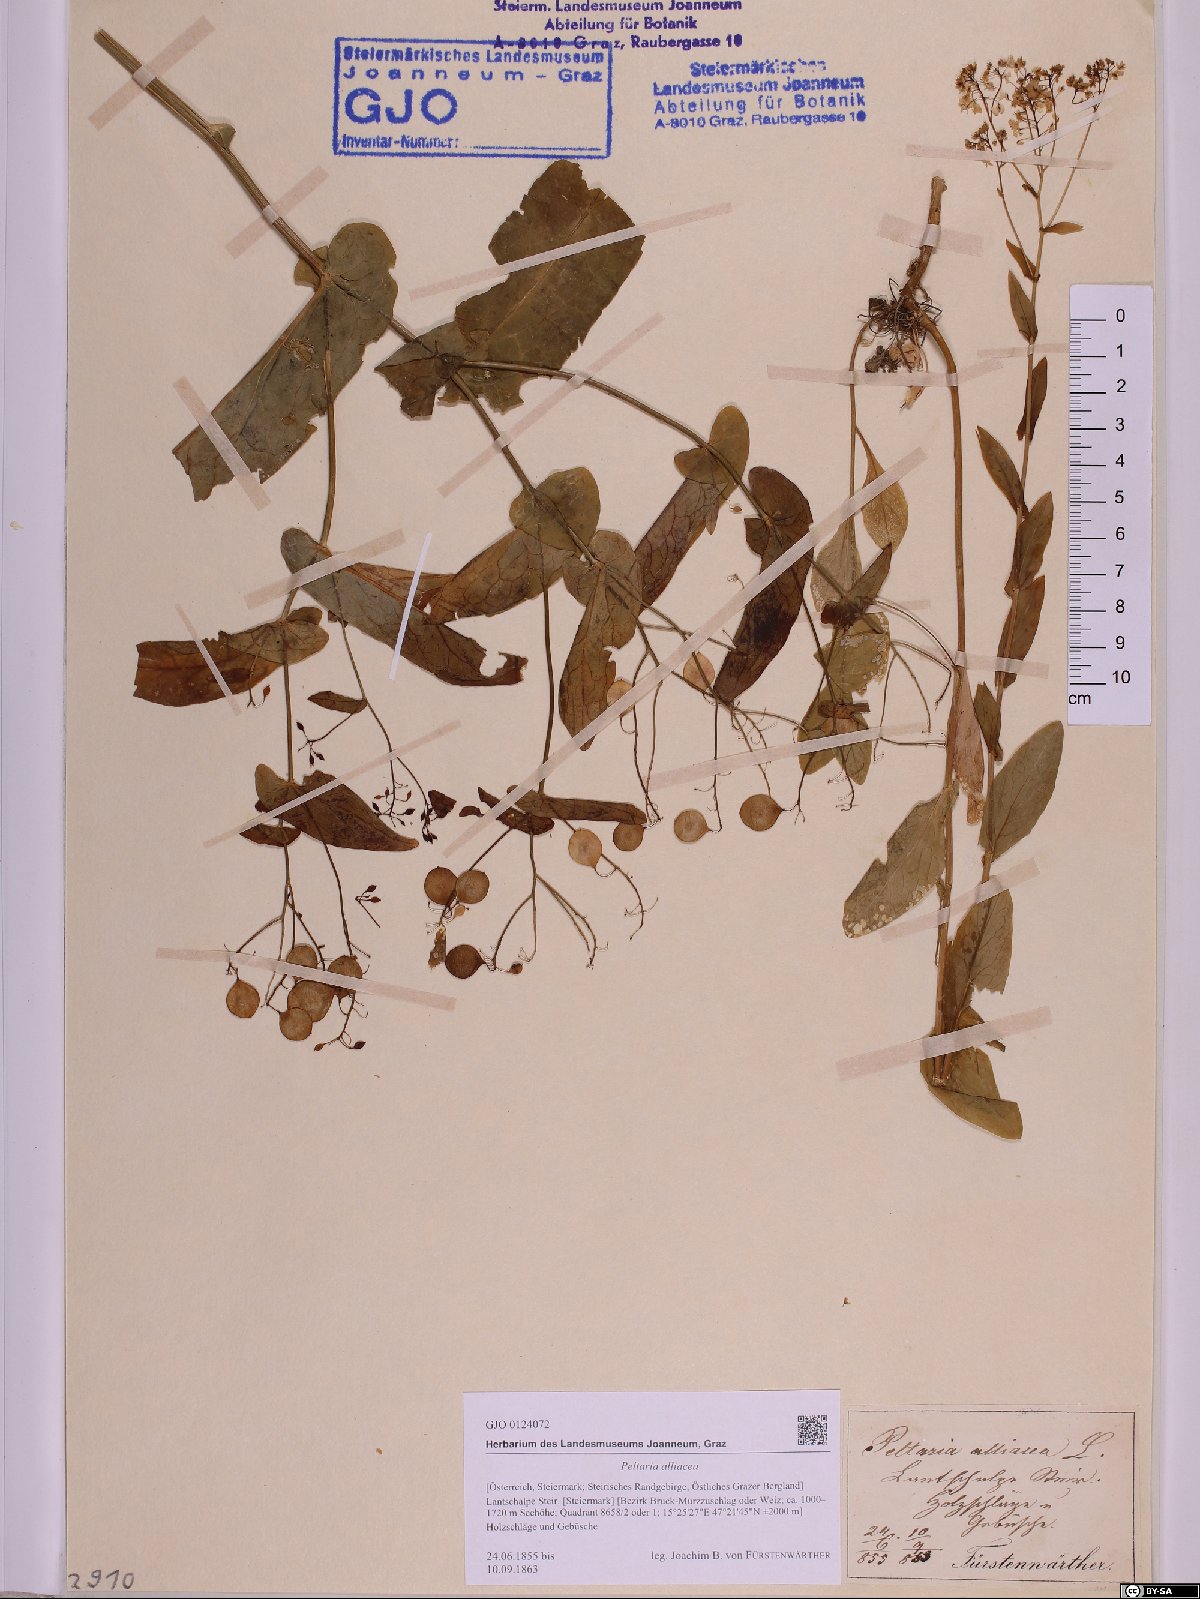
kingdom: Plantae
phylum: Tracheophyta
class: Magnoliopsida
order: Brassicales
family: Brassicaceae
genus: Peltaria
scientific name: Peltaria alliacea
